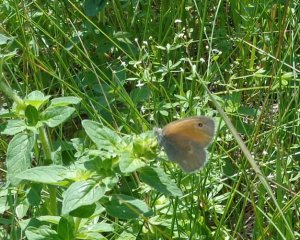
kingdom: Animalia
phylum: Arthropoda
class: Insecta
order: Lepidoptera
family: Nymphalidae
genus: Coenonympha
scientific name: Coenonympha tullia
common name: Large Heath
